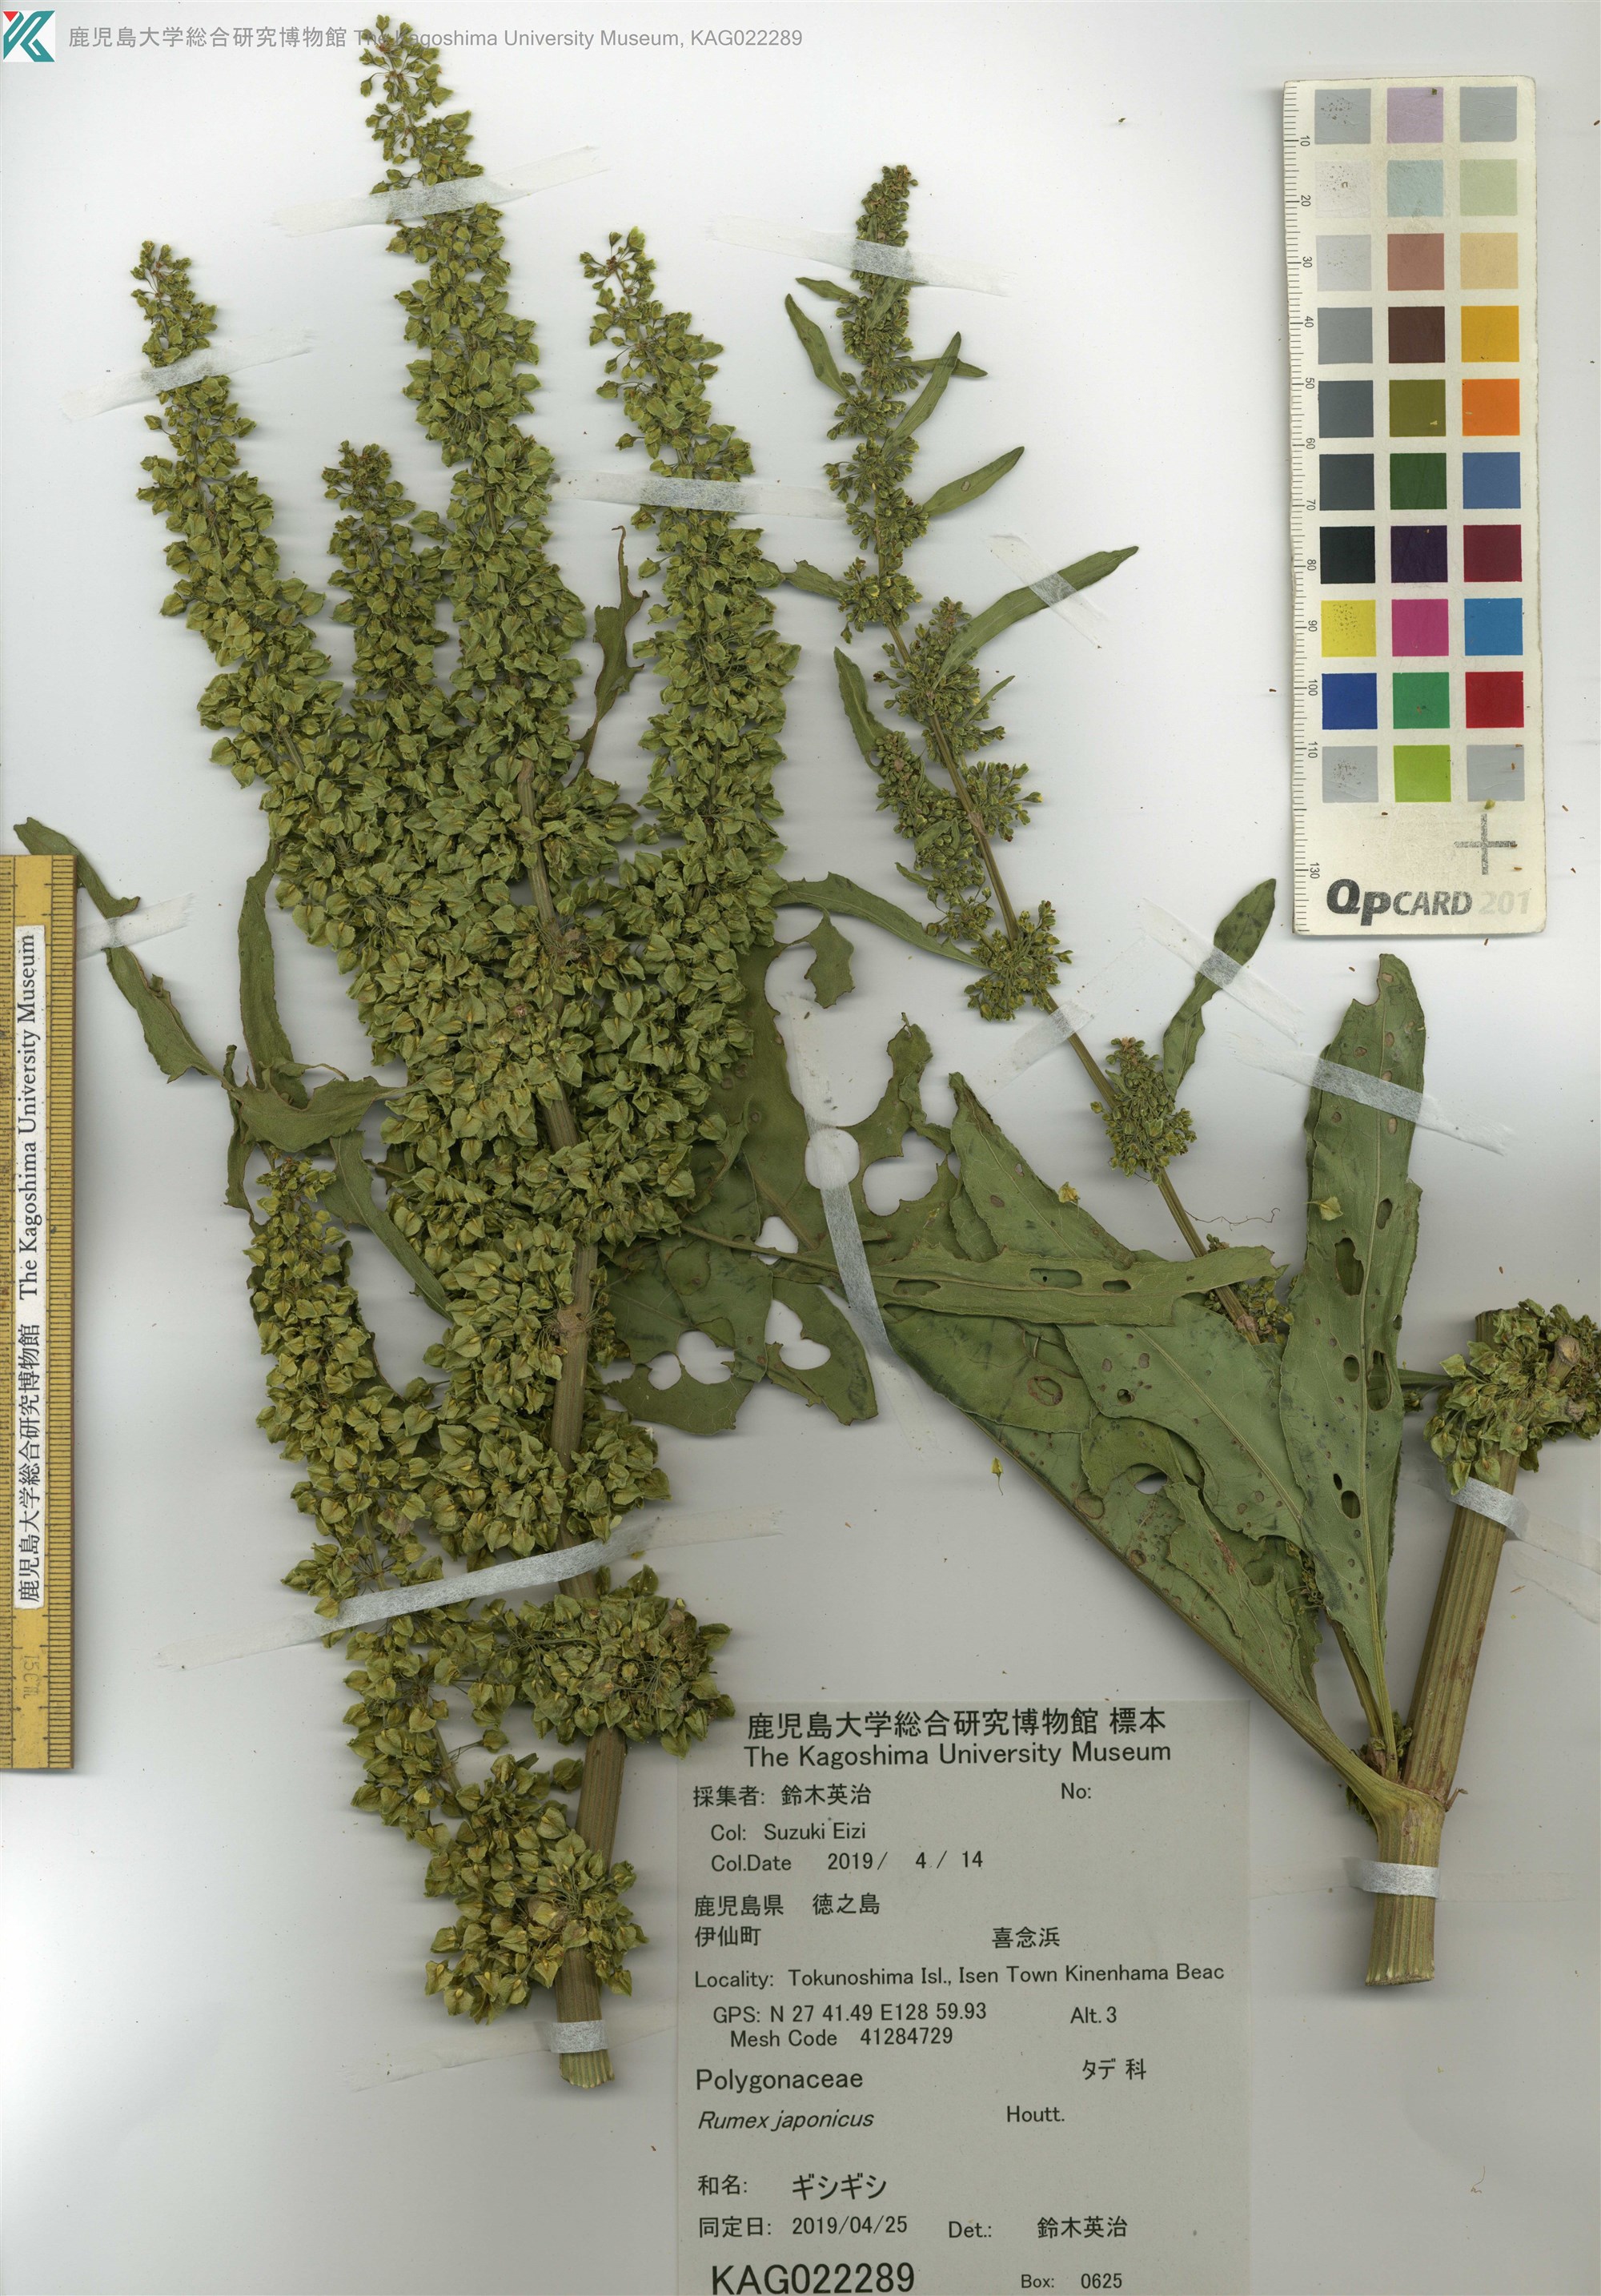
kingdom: Plantae
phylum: Tracheophyta
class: Magnoliopsida
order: Caryophyllales
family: Polygonaceae
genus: Rumex
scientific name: Rumex japonicus
